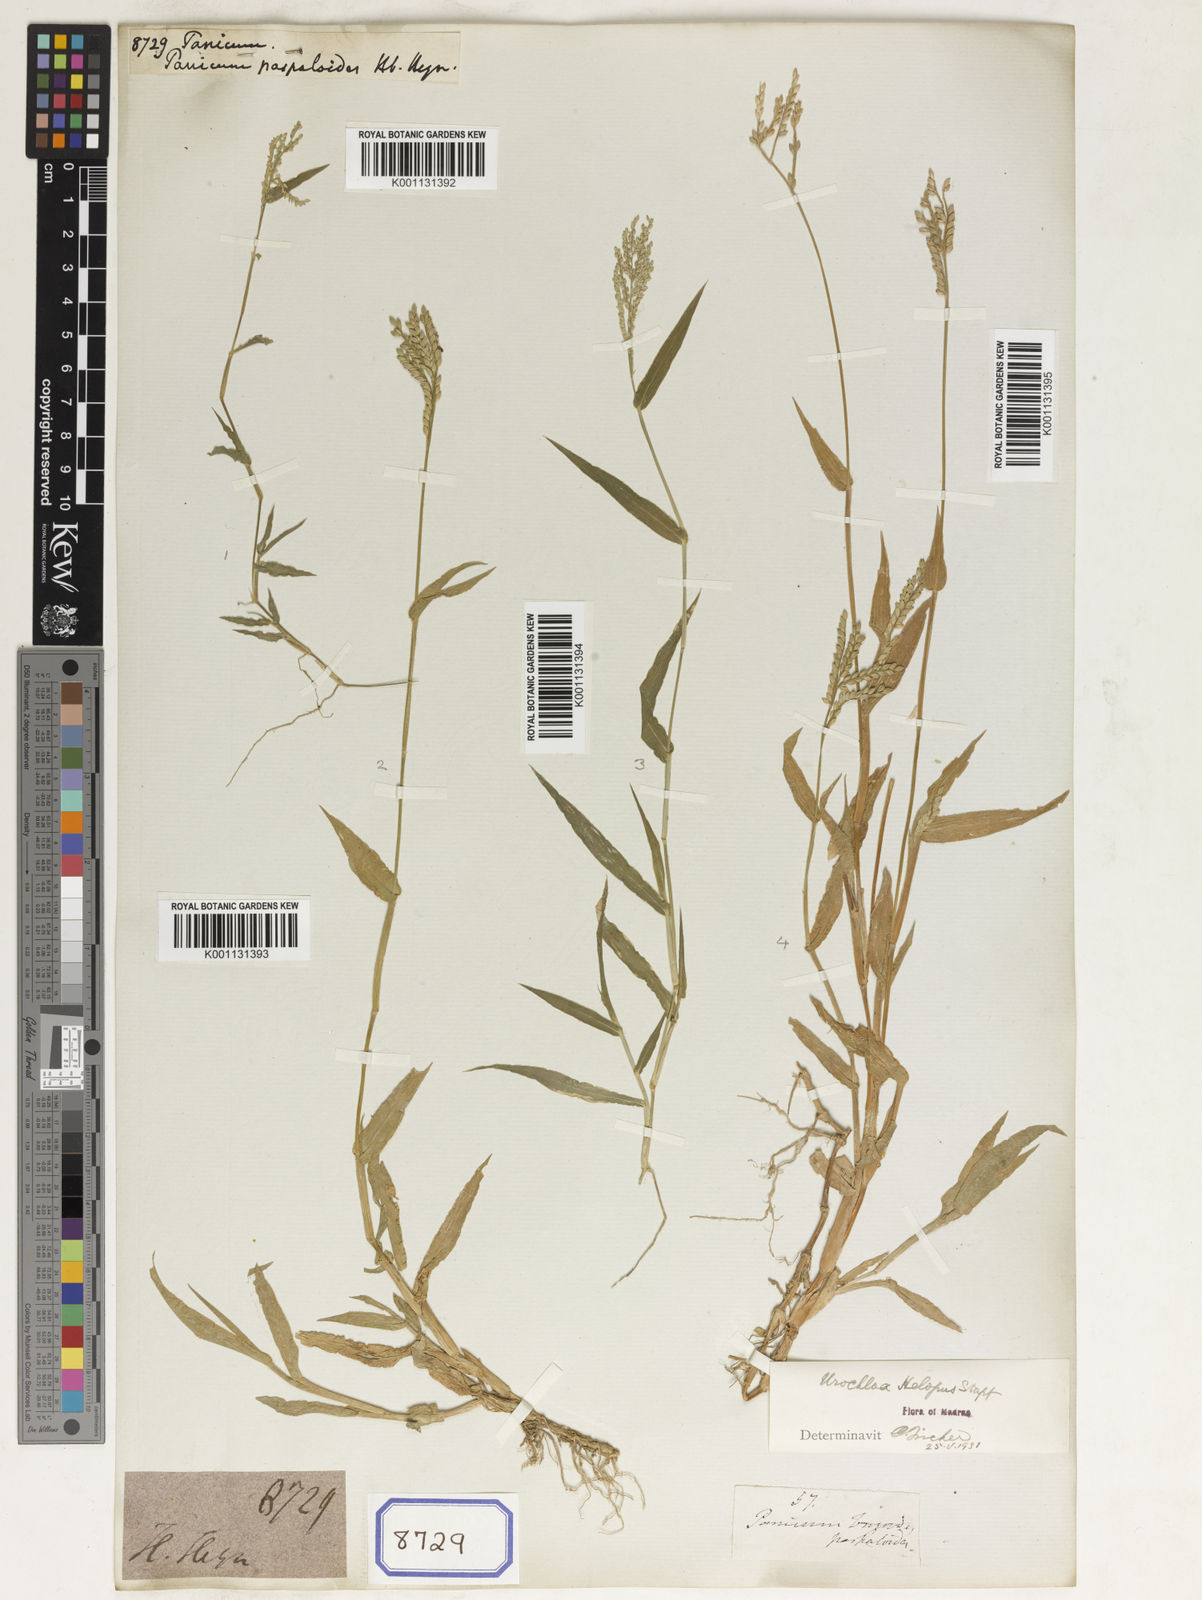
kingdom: Plantae
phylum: Tracheophyta
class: Liliopsida
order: Poales
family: Poaceae
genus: Panicum
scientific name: Panicum
